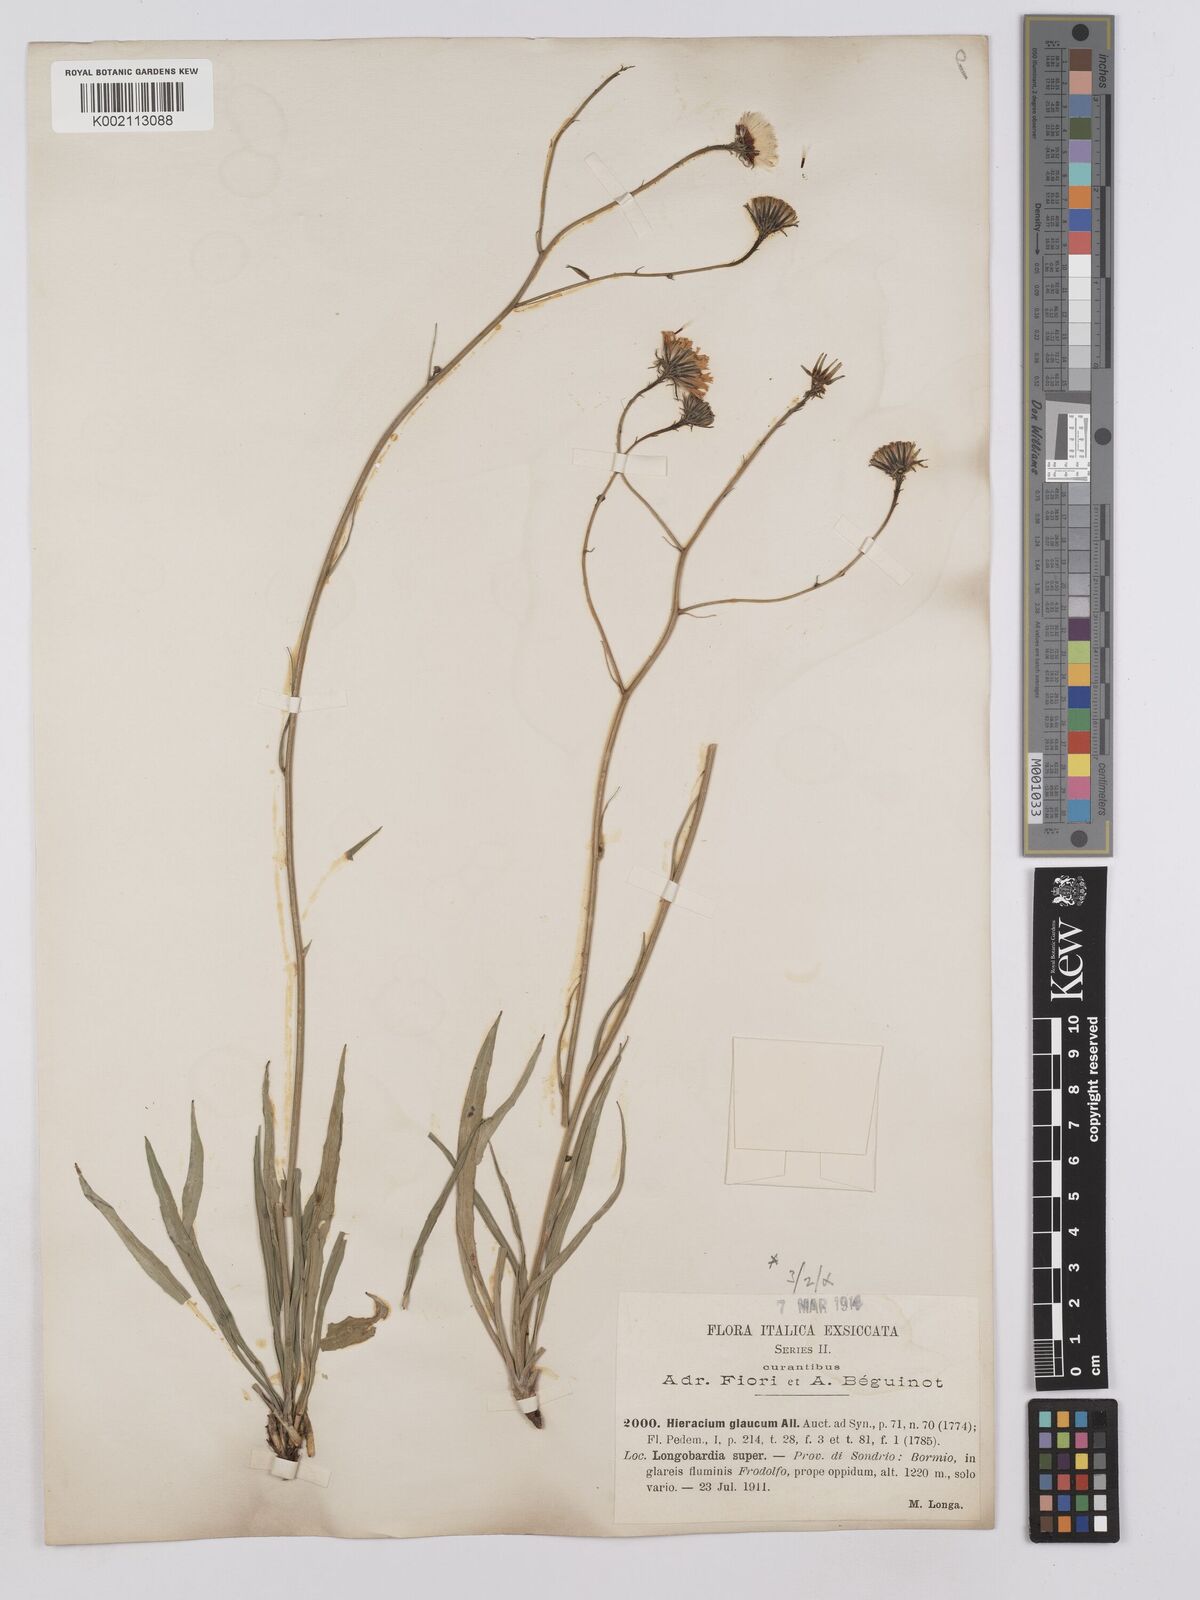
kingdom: Plantae
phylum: Tracheophyta
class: Magnoliopsida
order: Asterales
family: Asteraceae
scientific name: Asteraceae
